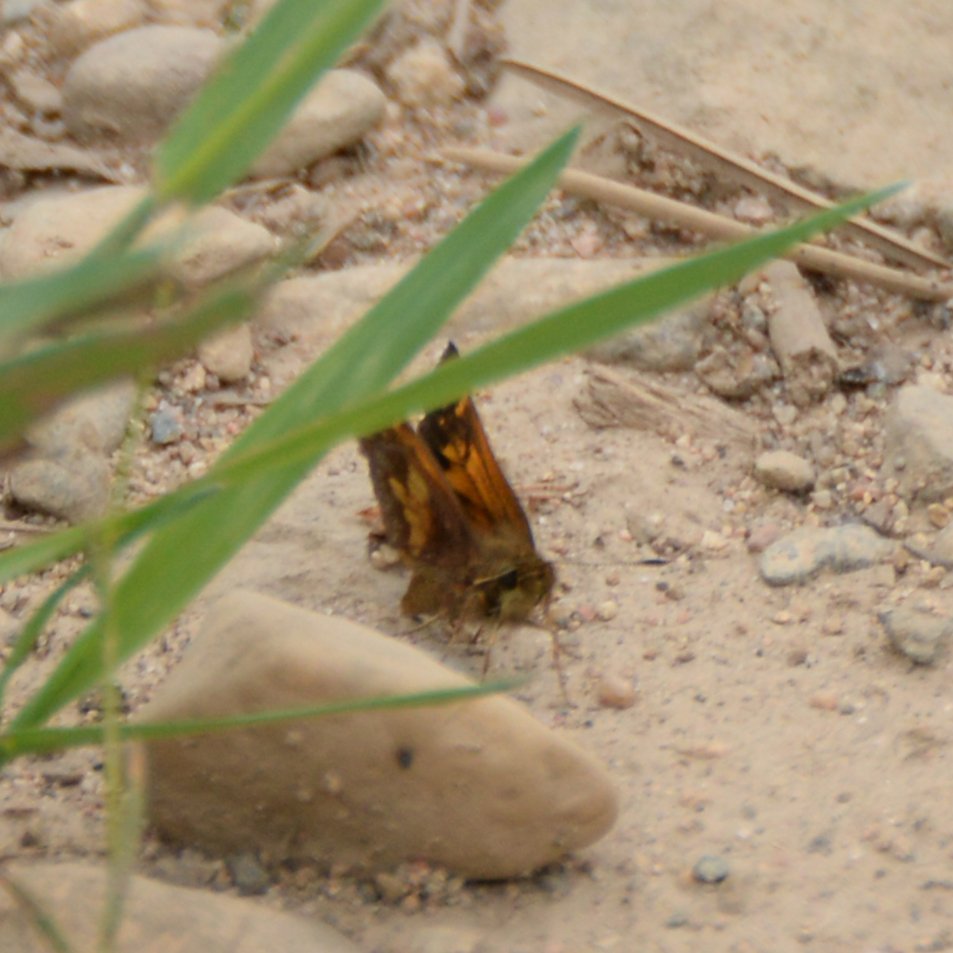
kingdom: Animalia
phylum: Arthropoda
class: Insecta
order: Lepidoptera
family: Hesperiidae
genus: Lon
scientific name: Lon hobomok
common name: Hobomok Skipper
